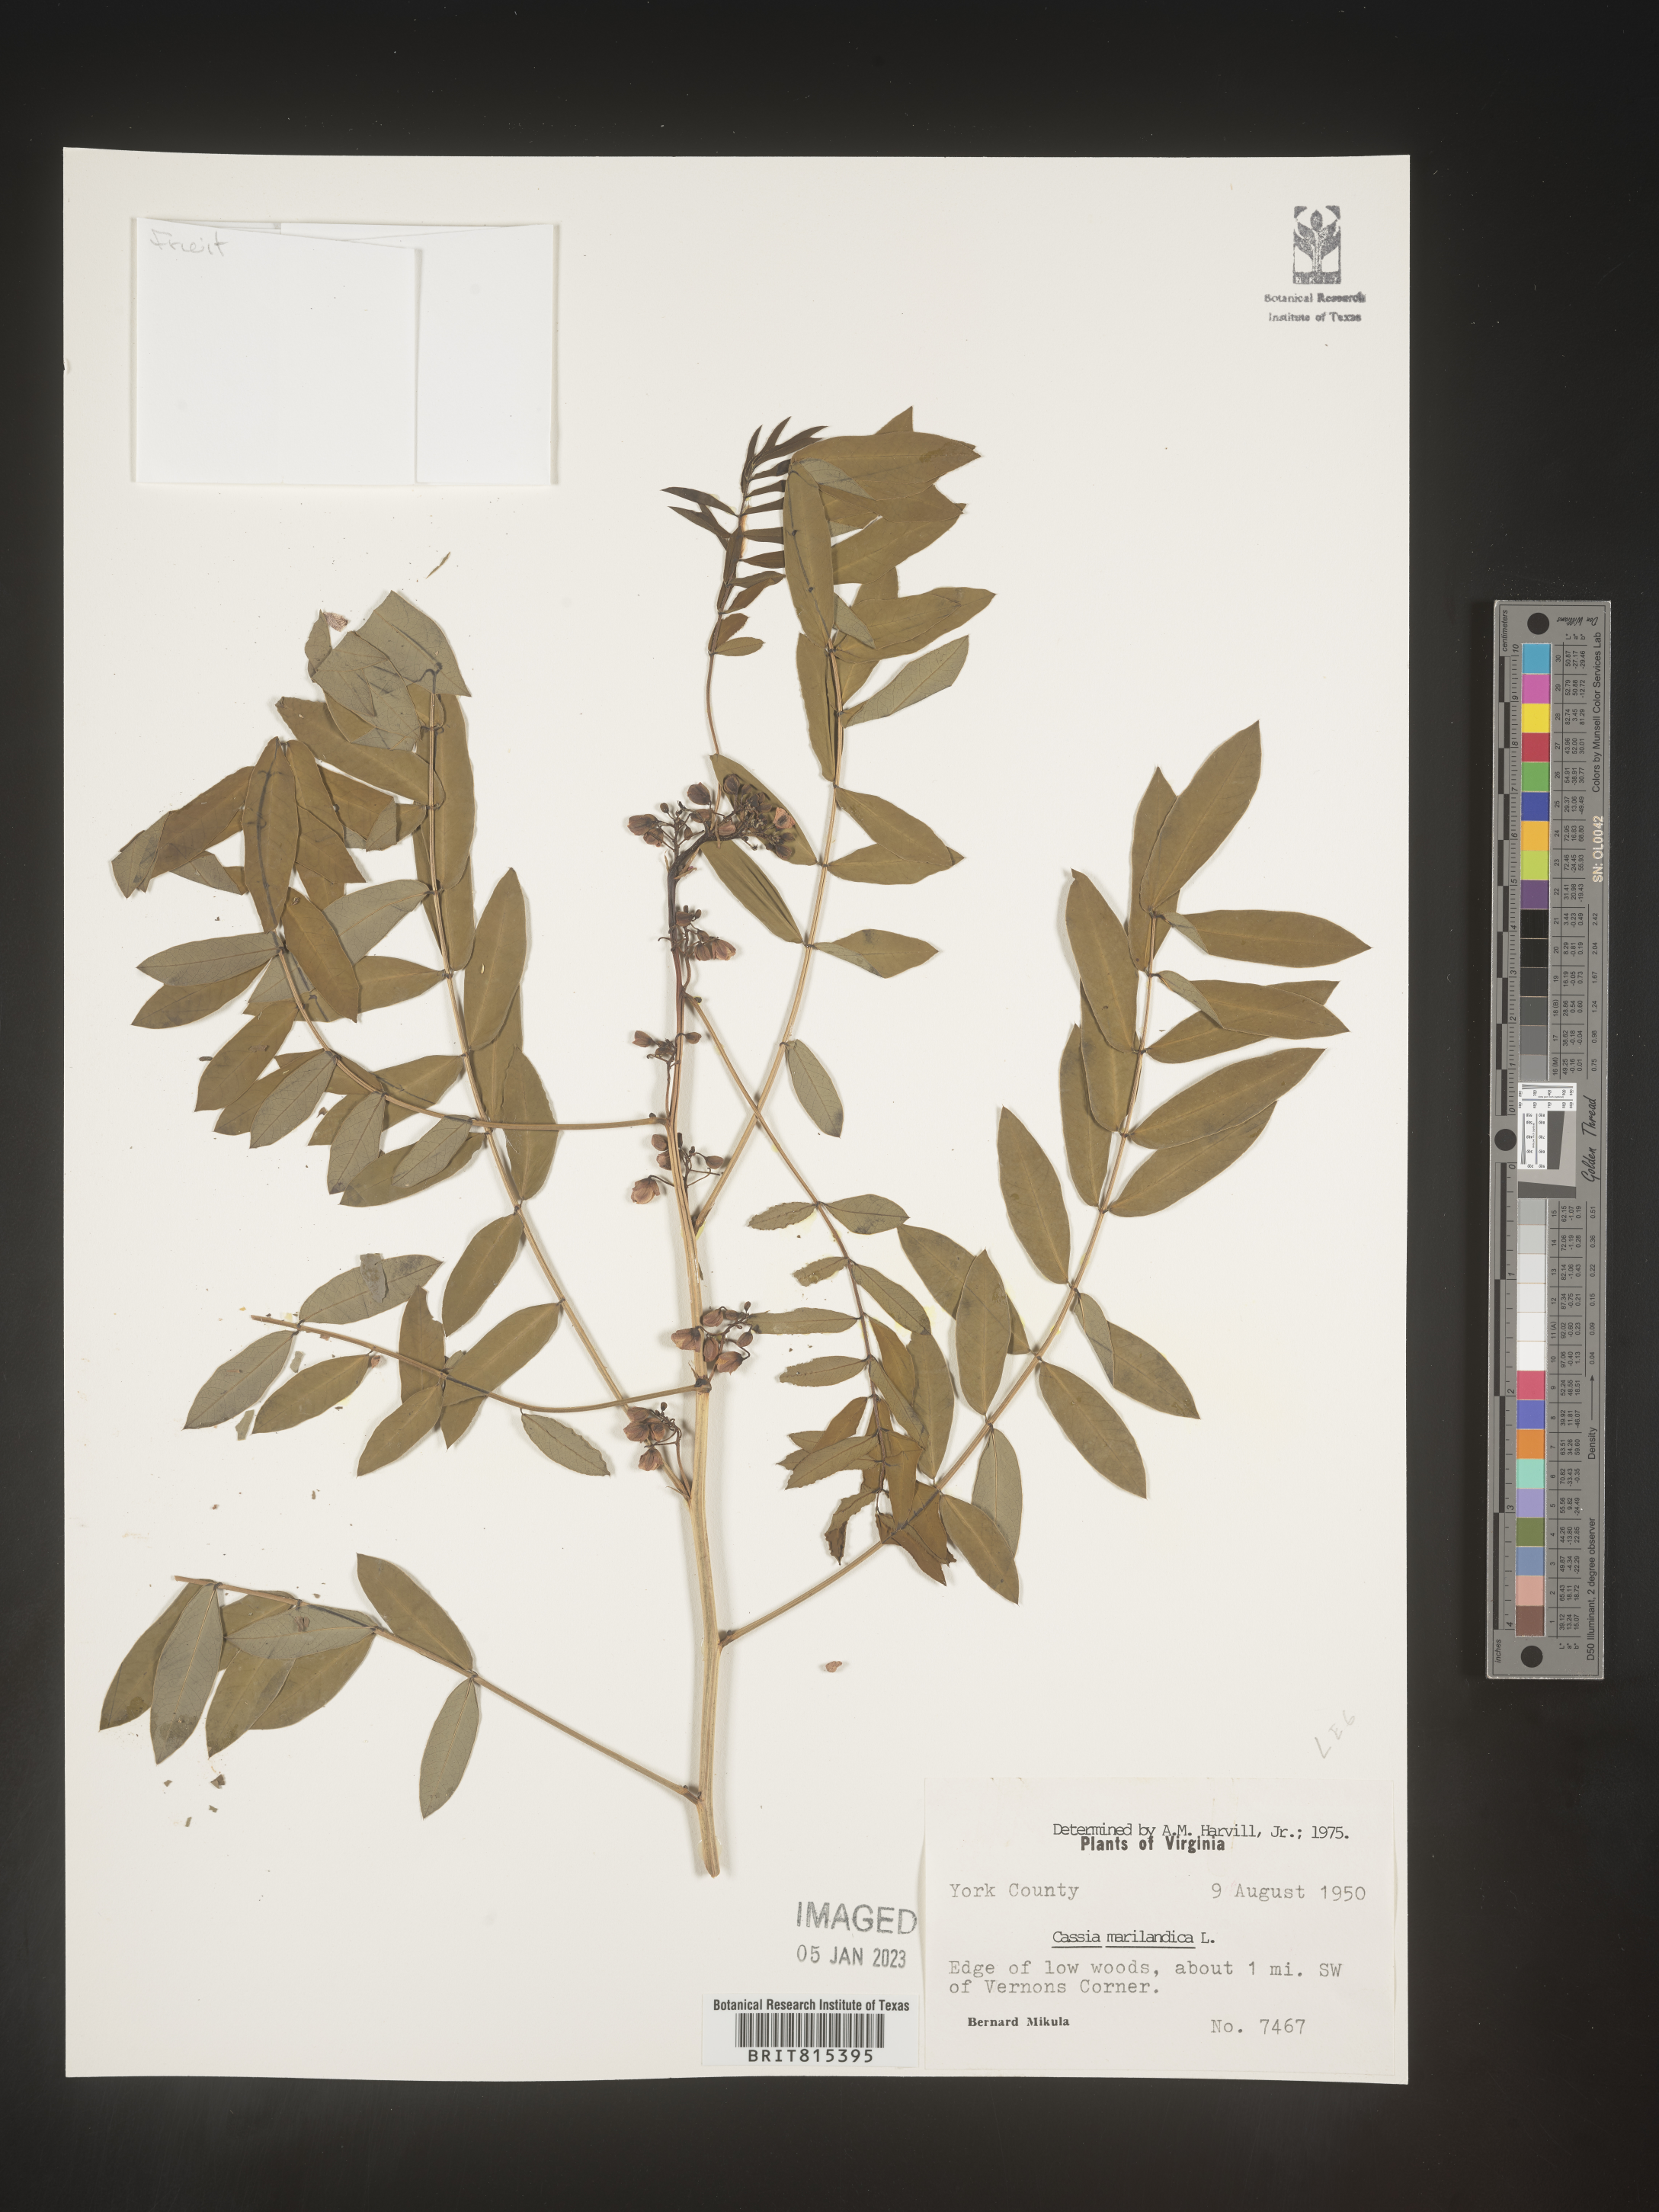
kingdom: Plantae
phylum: Tracheophyta
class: Magnoliopsida
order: Fabales
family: Fabaceae
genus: Senna
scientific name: Senna marilandica
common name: American senna
